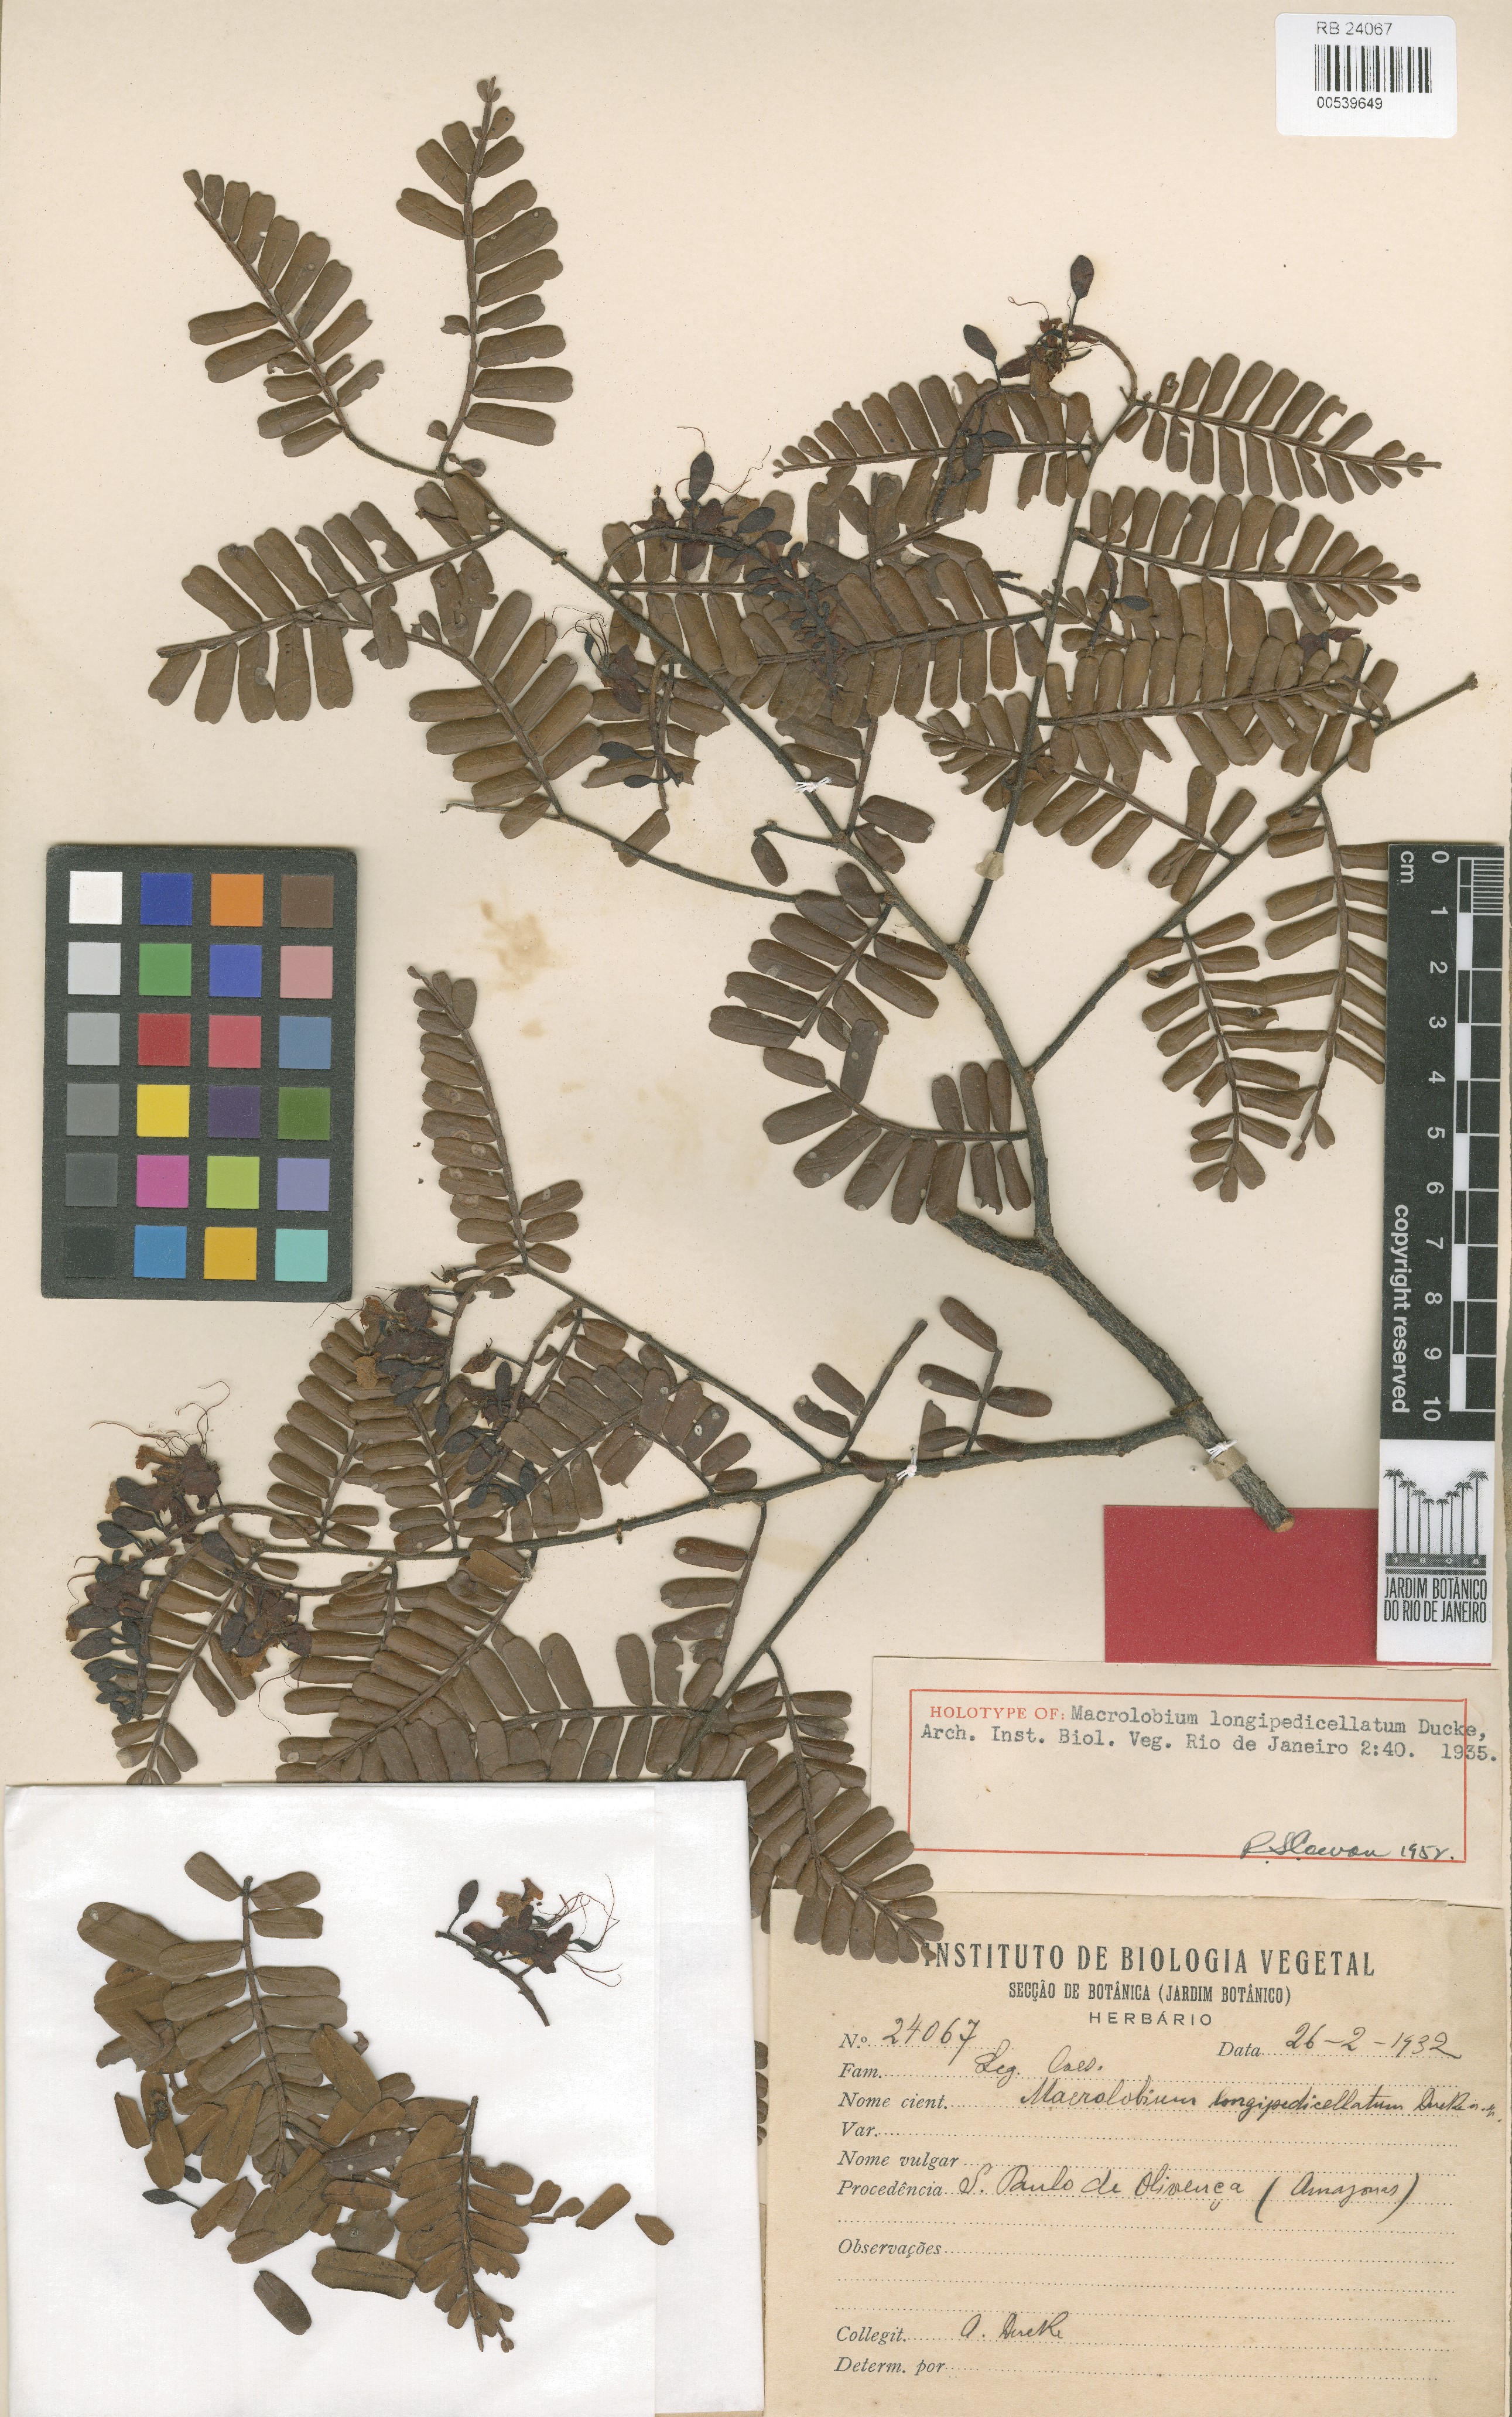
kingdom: Plantae
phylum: Tracheophyta
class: Magnoliopsida
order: Fabales
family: Fabaceae
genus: Macrolobium
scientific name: Macrolobium longipedicellatum
